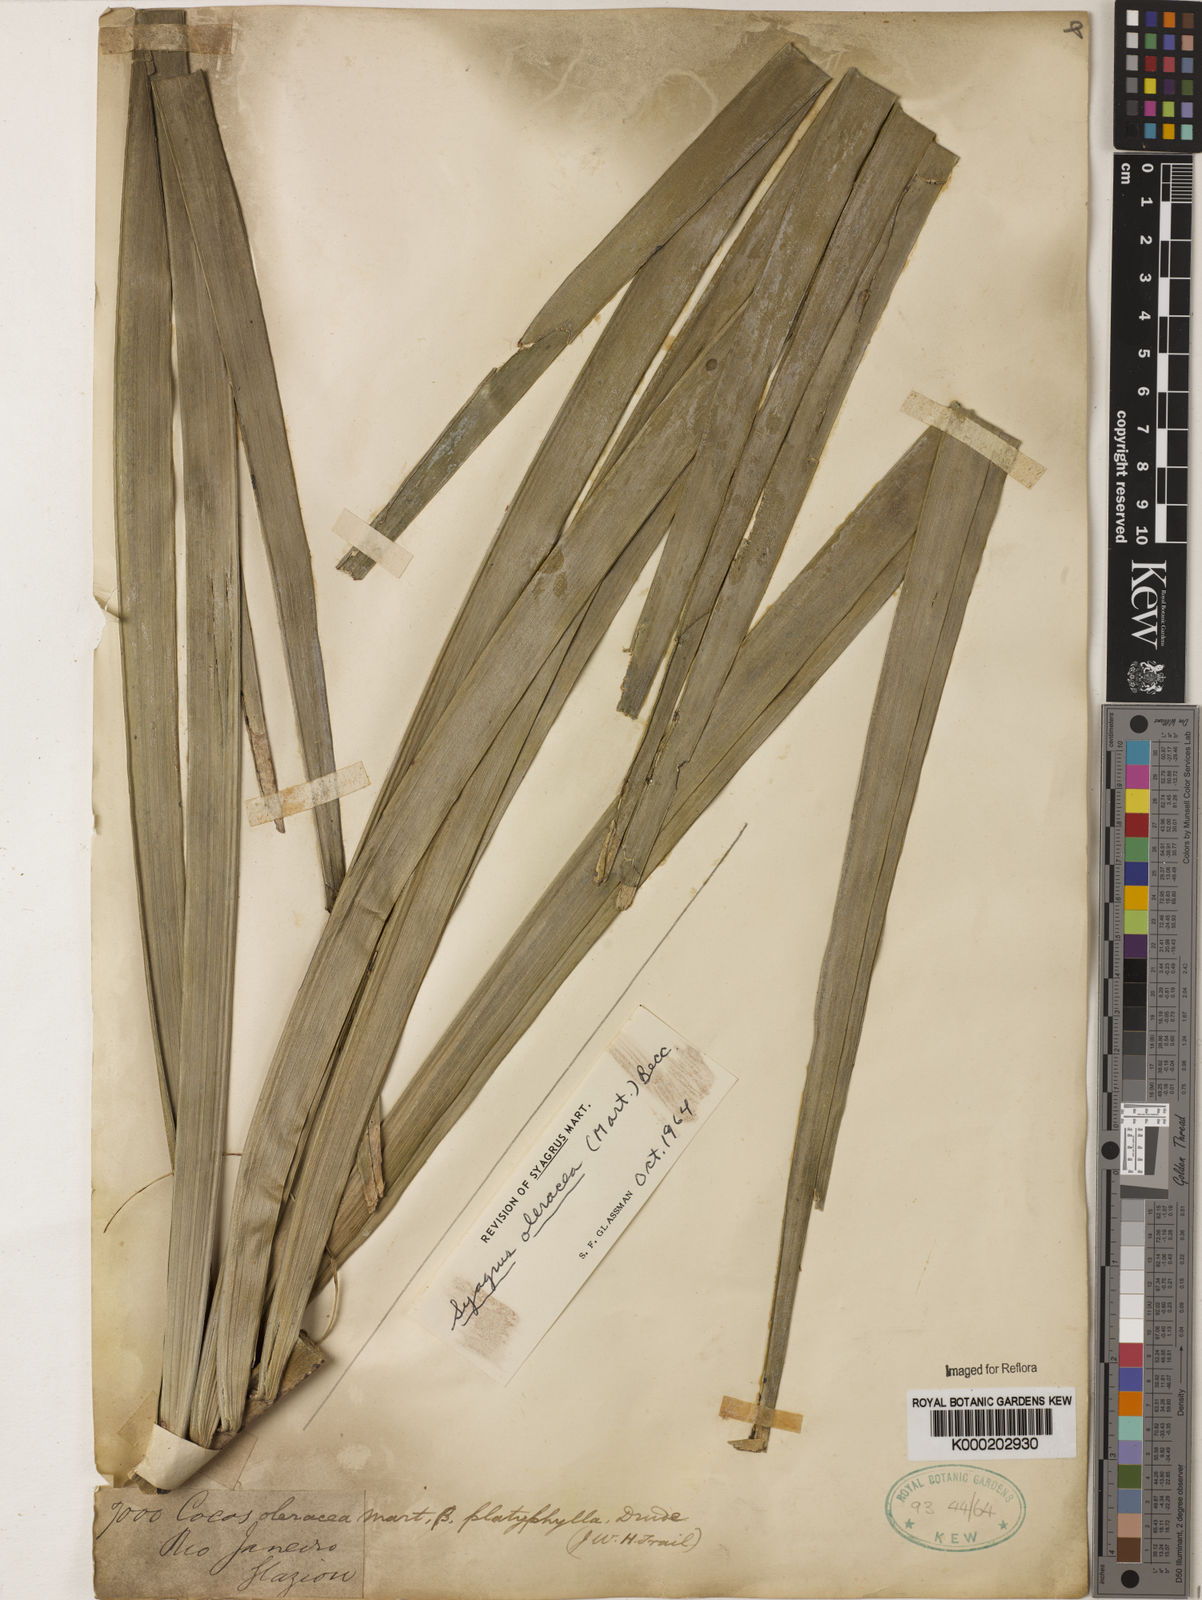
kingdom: Plantae
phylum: Tracheophyta
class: Liliopsida
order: Arecales
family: Arecaceae
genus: Syagrus
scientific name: Syagrus oleracea
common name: Catole palm
